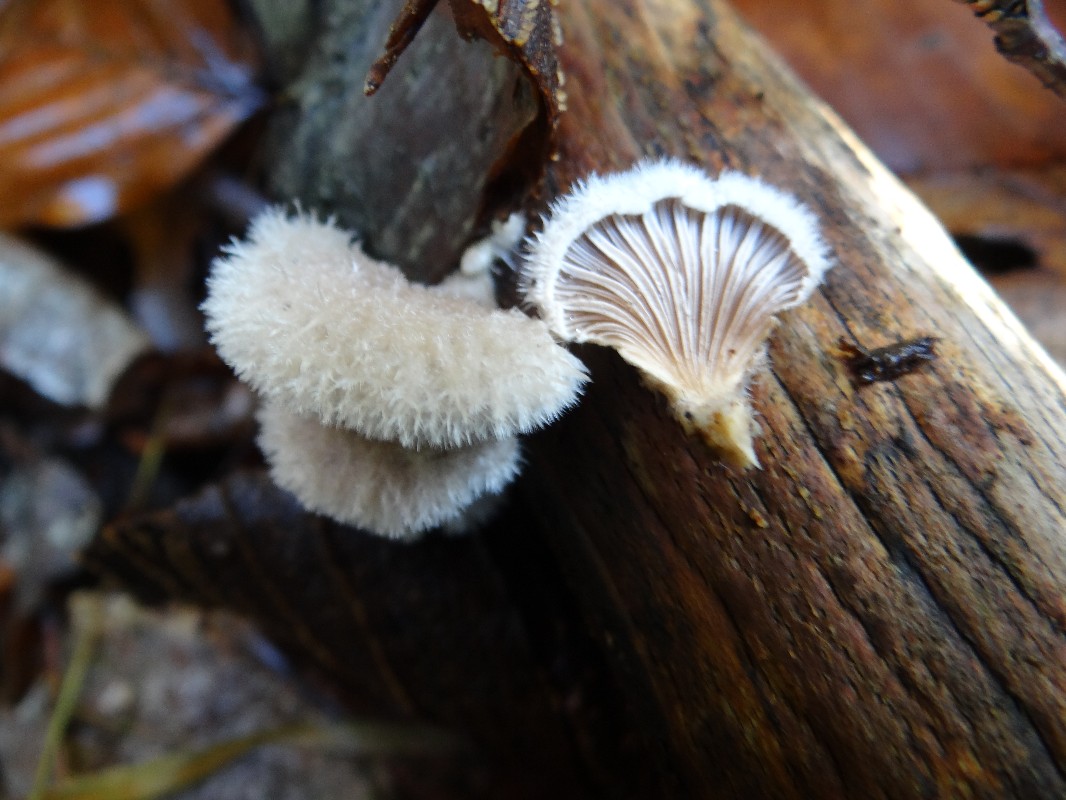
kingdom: Fungi
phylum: Basidiomycota
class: Agaricomycetes
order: Agaricales
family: Schizophyllaceae
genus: Schizophyllum
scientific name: Schizophyllum commune
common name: kløvblad
